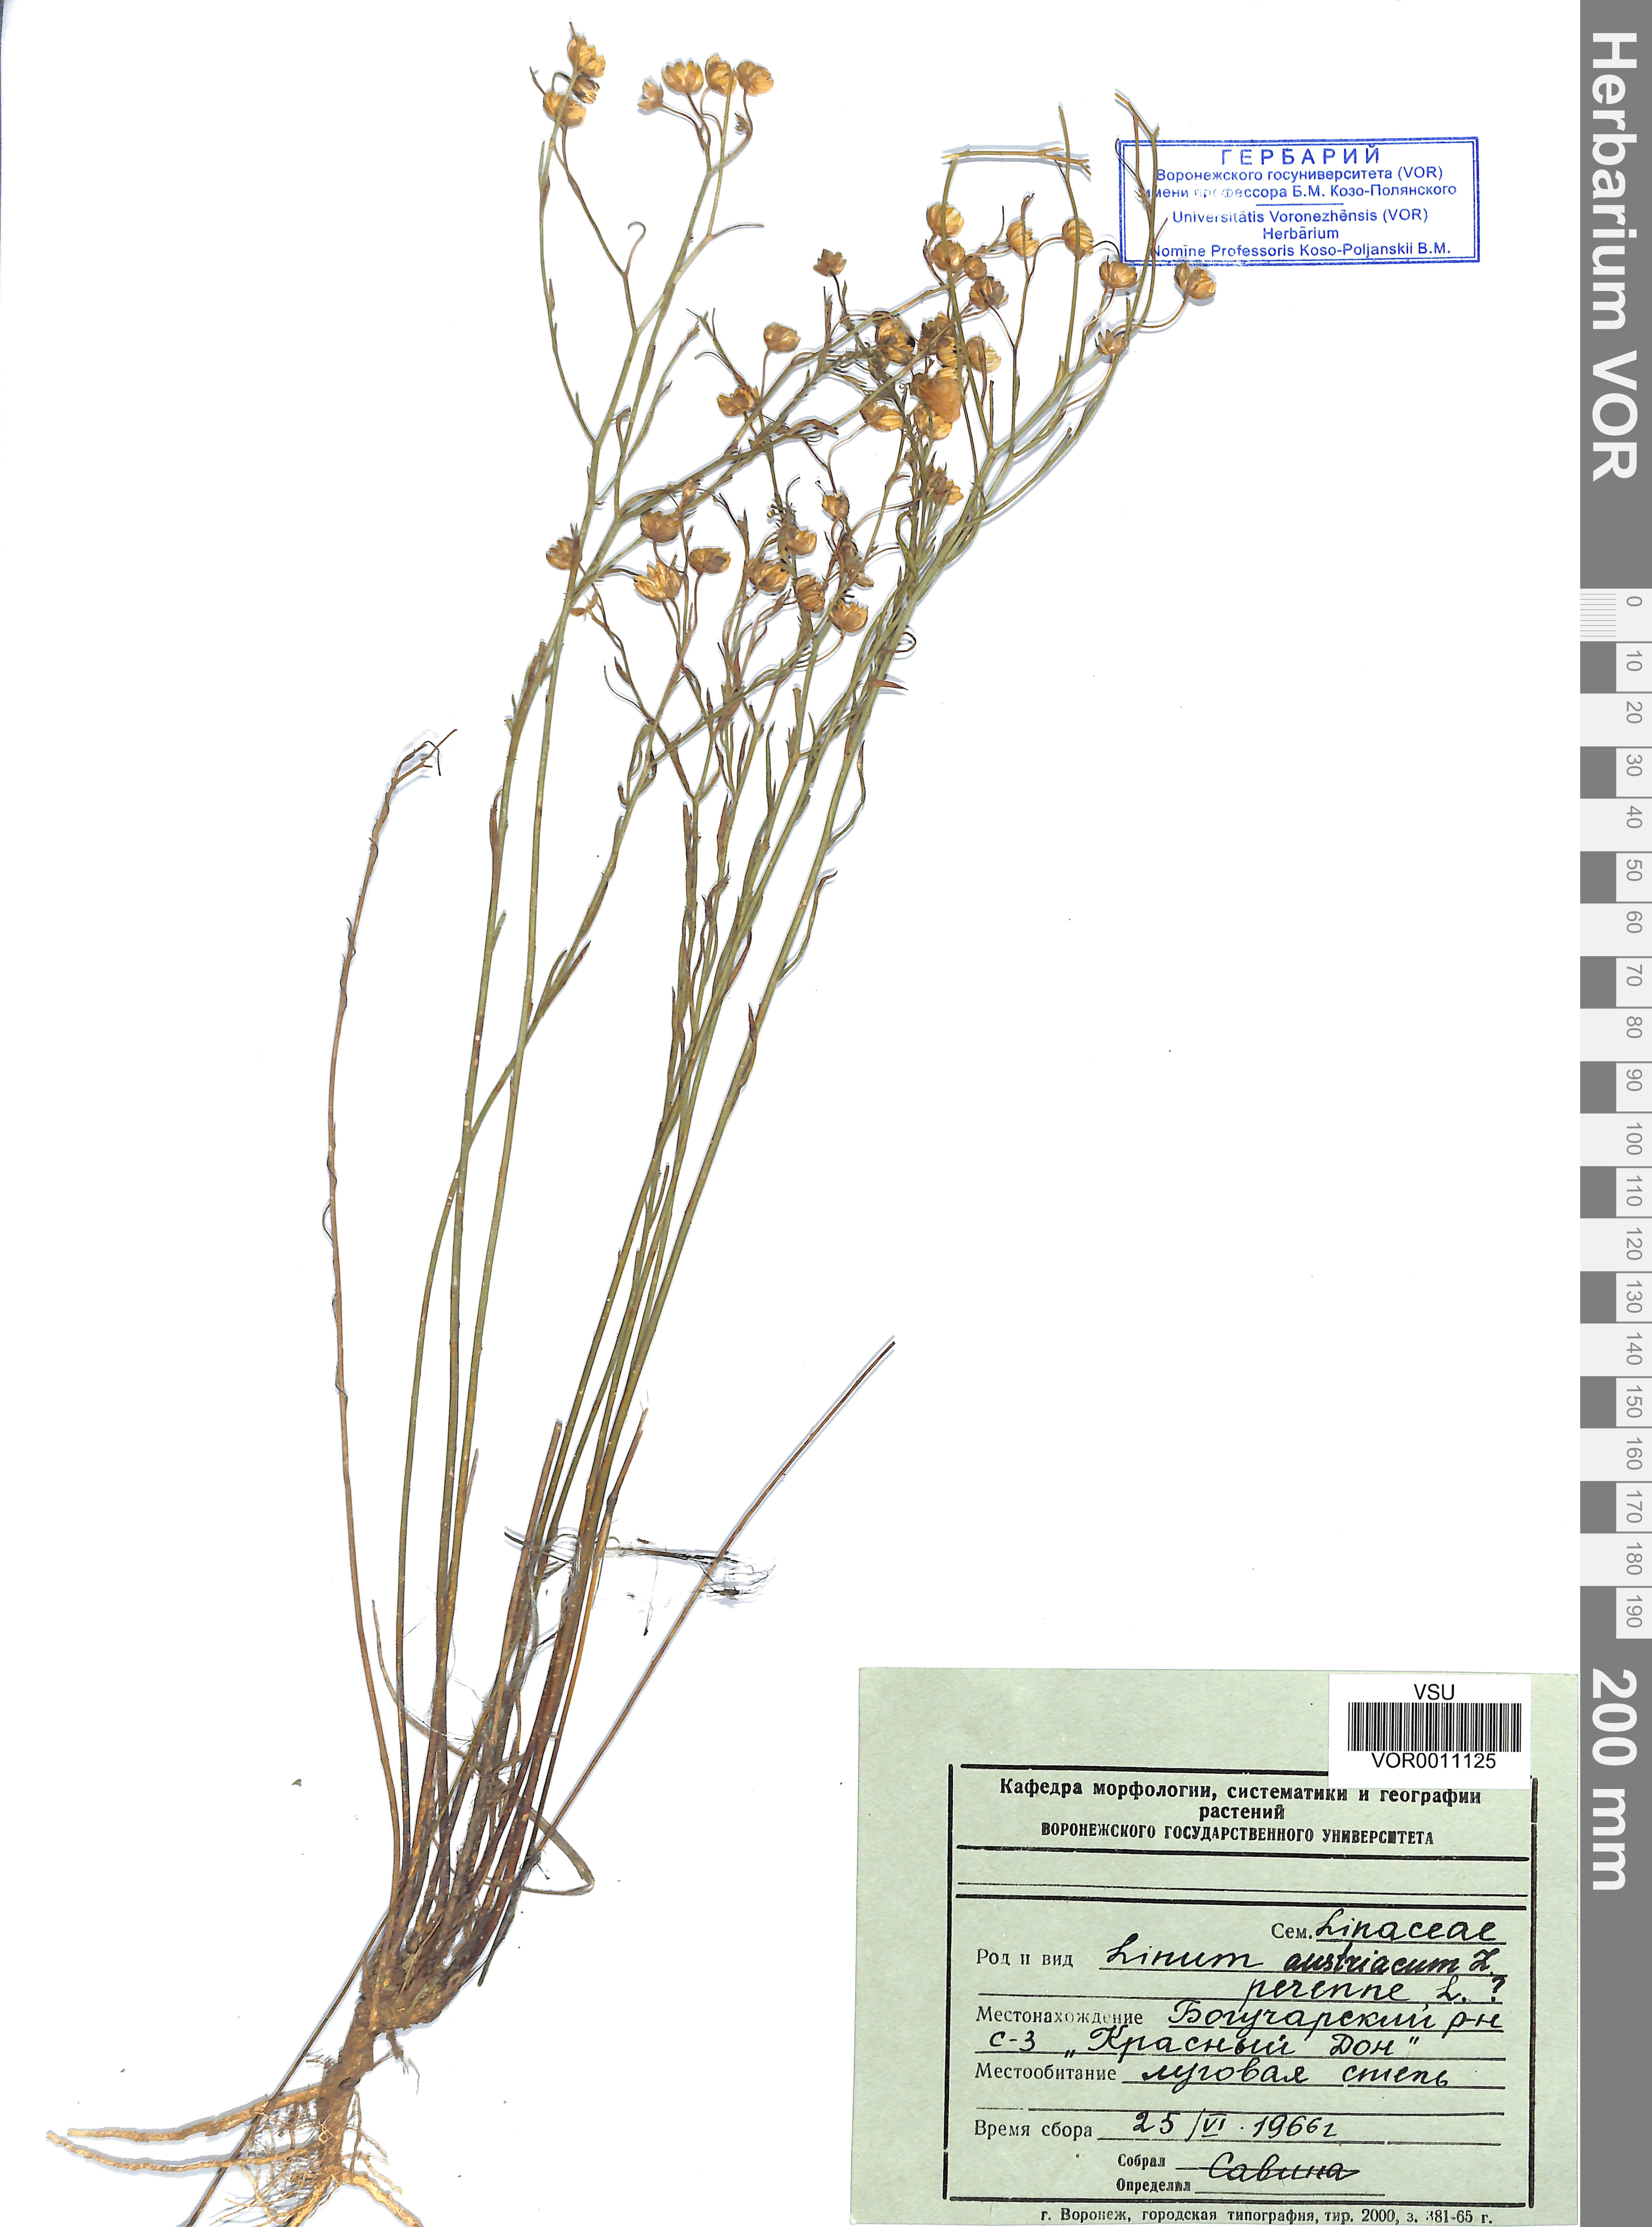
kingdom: Plantae
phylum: Tracheophyta
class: Magnoliopsida
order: Malpighiales
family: Linaceae
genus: Linum
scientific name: Linum austriacum
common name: Austrian flax
